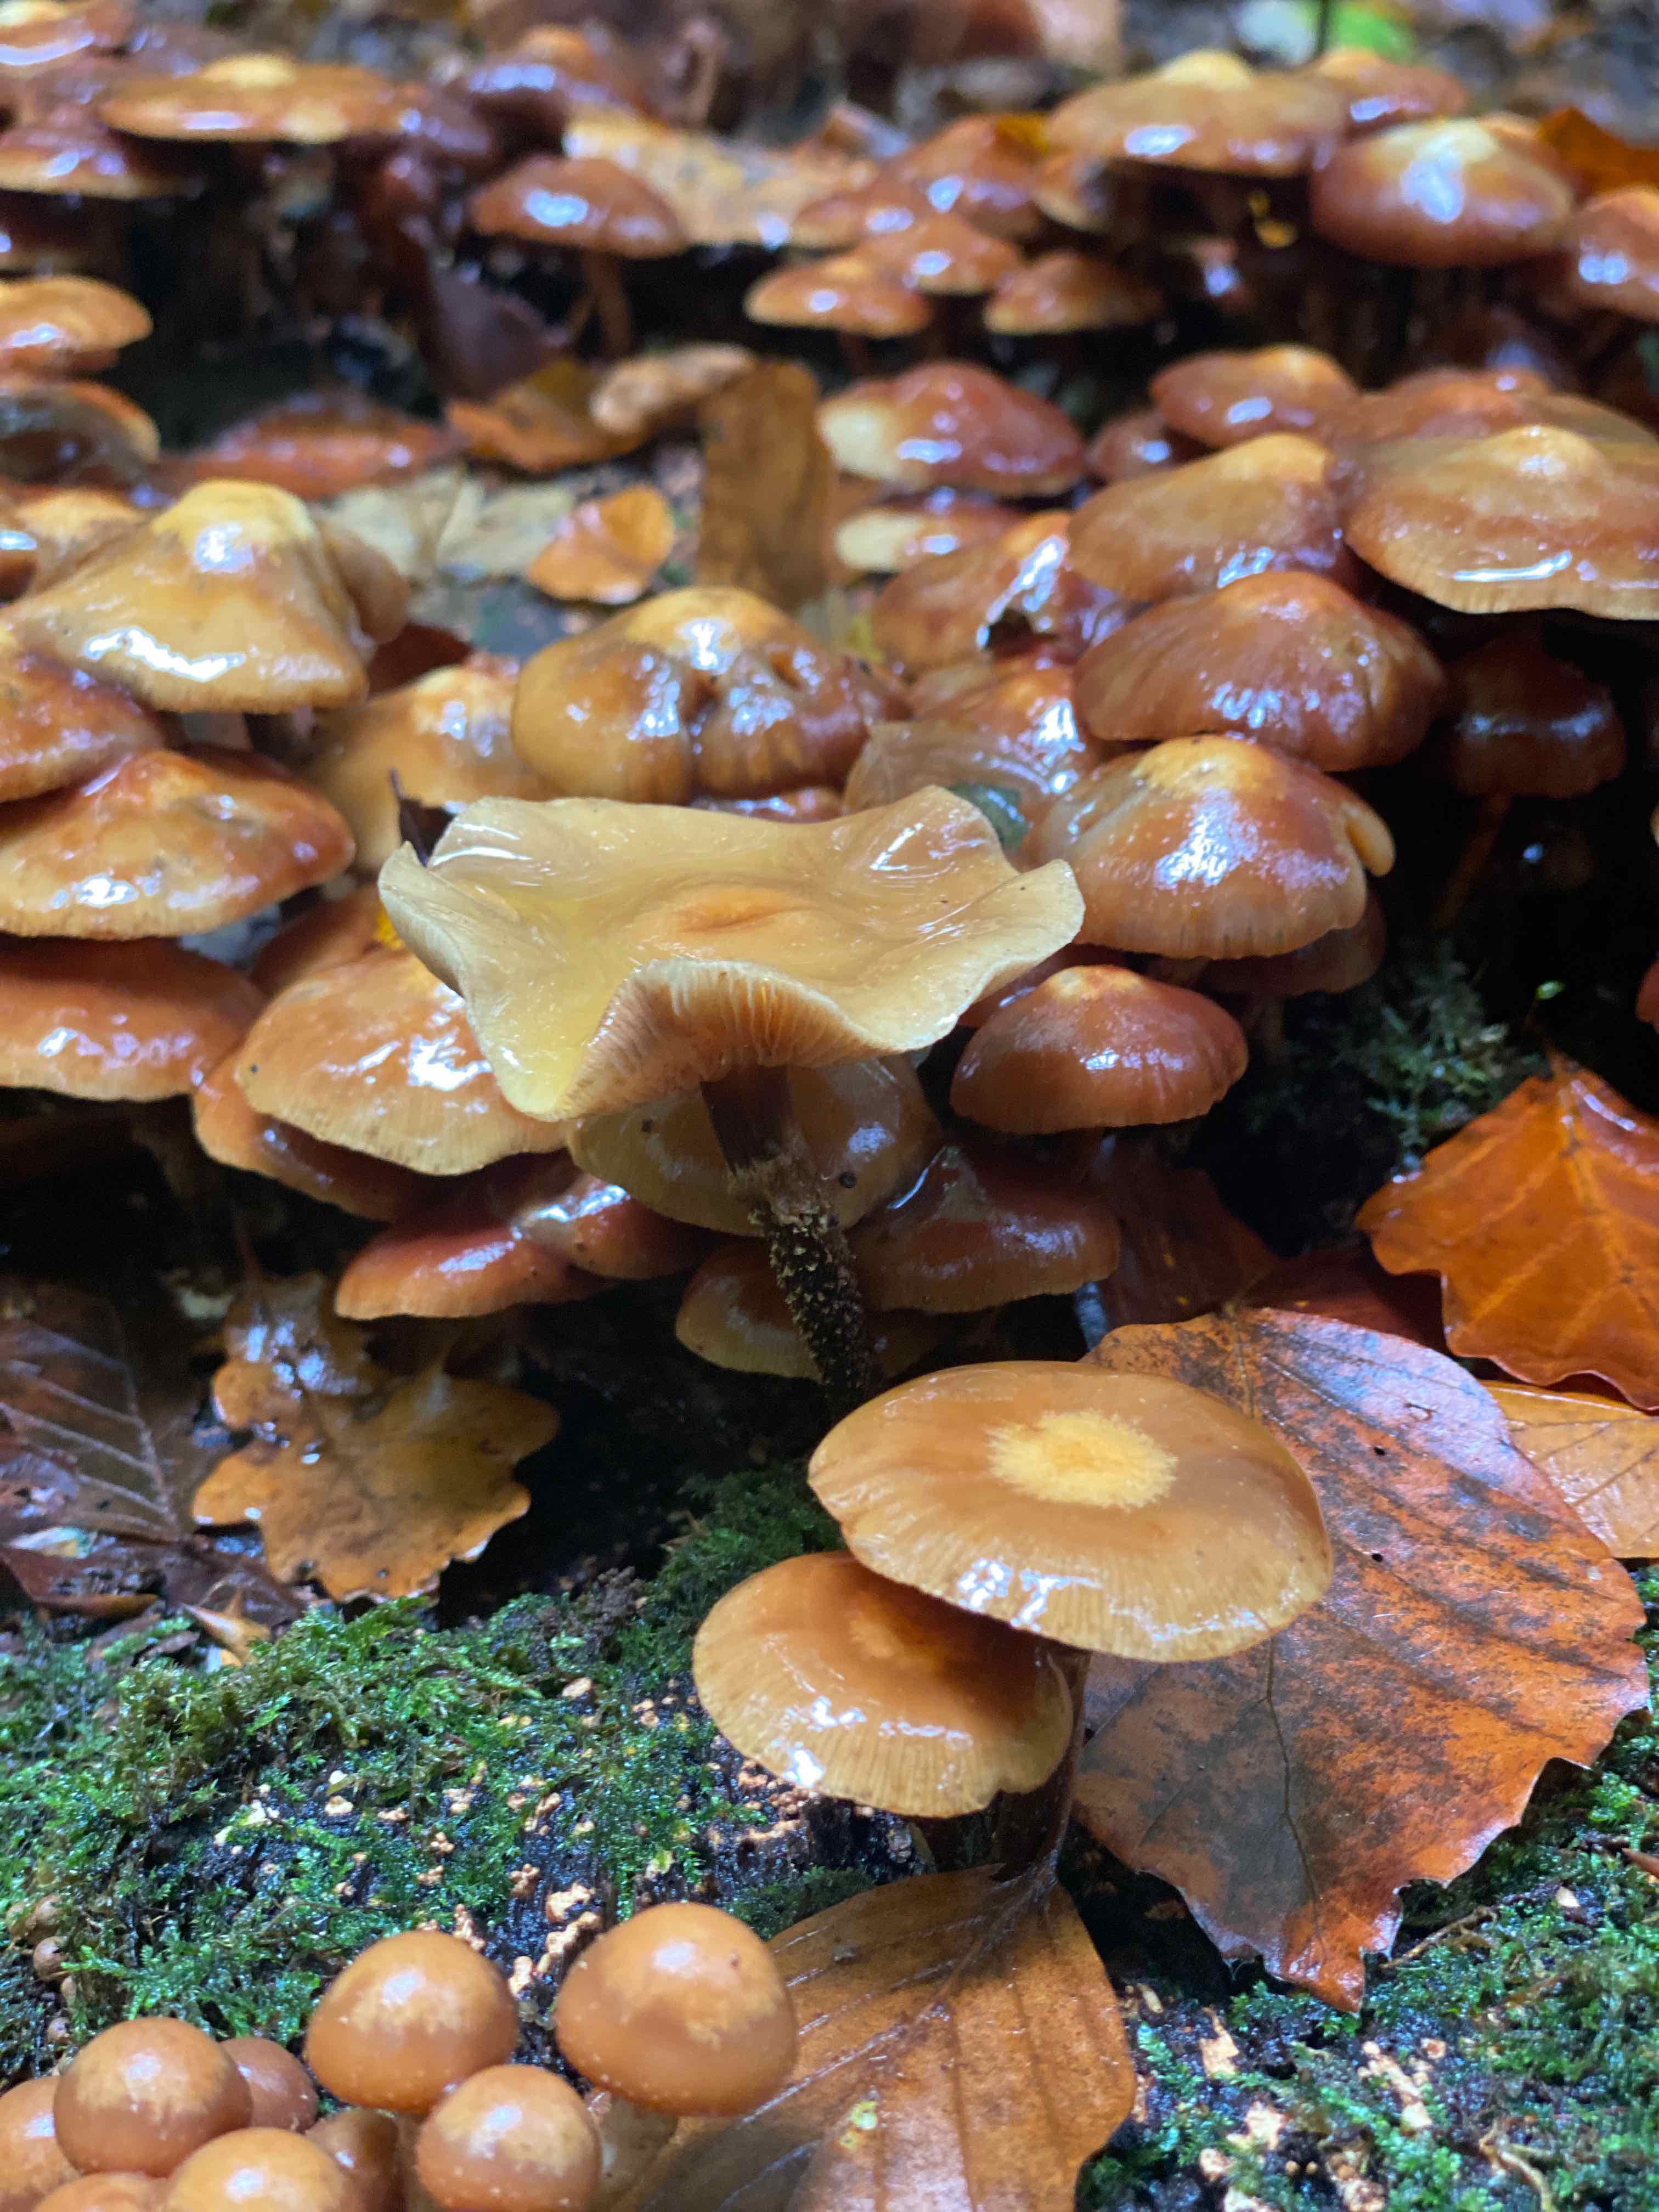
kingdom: Fungi
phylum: Basidiomycota
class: Agaricomycetes
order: Agaricales
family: Strophariaceae
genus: Kuehneromyces
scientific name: Kuehneromyces mutabilis
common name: foranderlig skælhat
